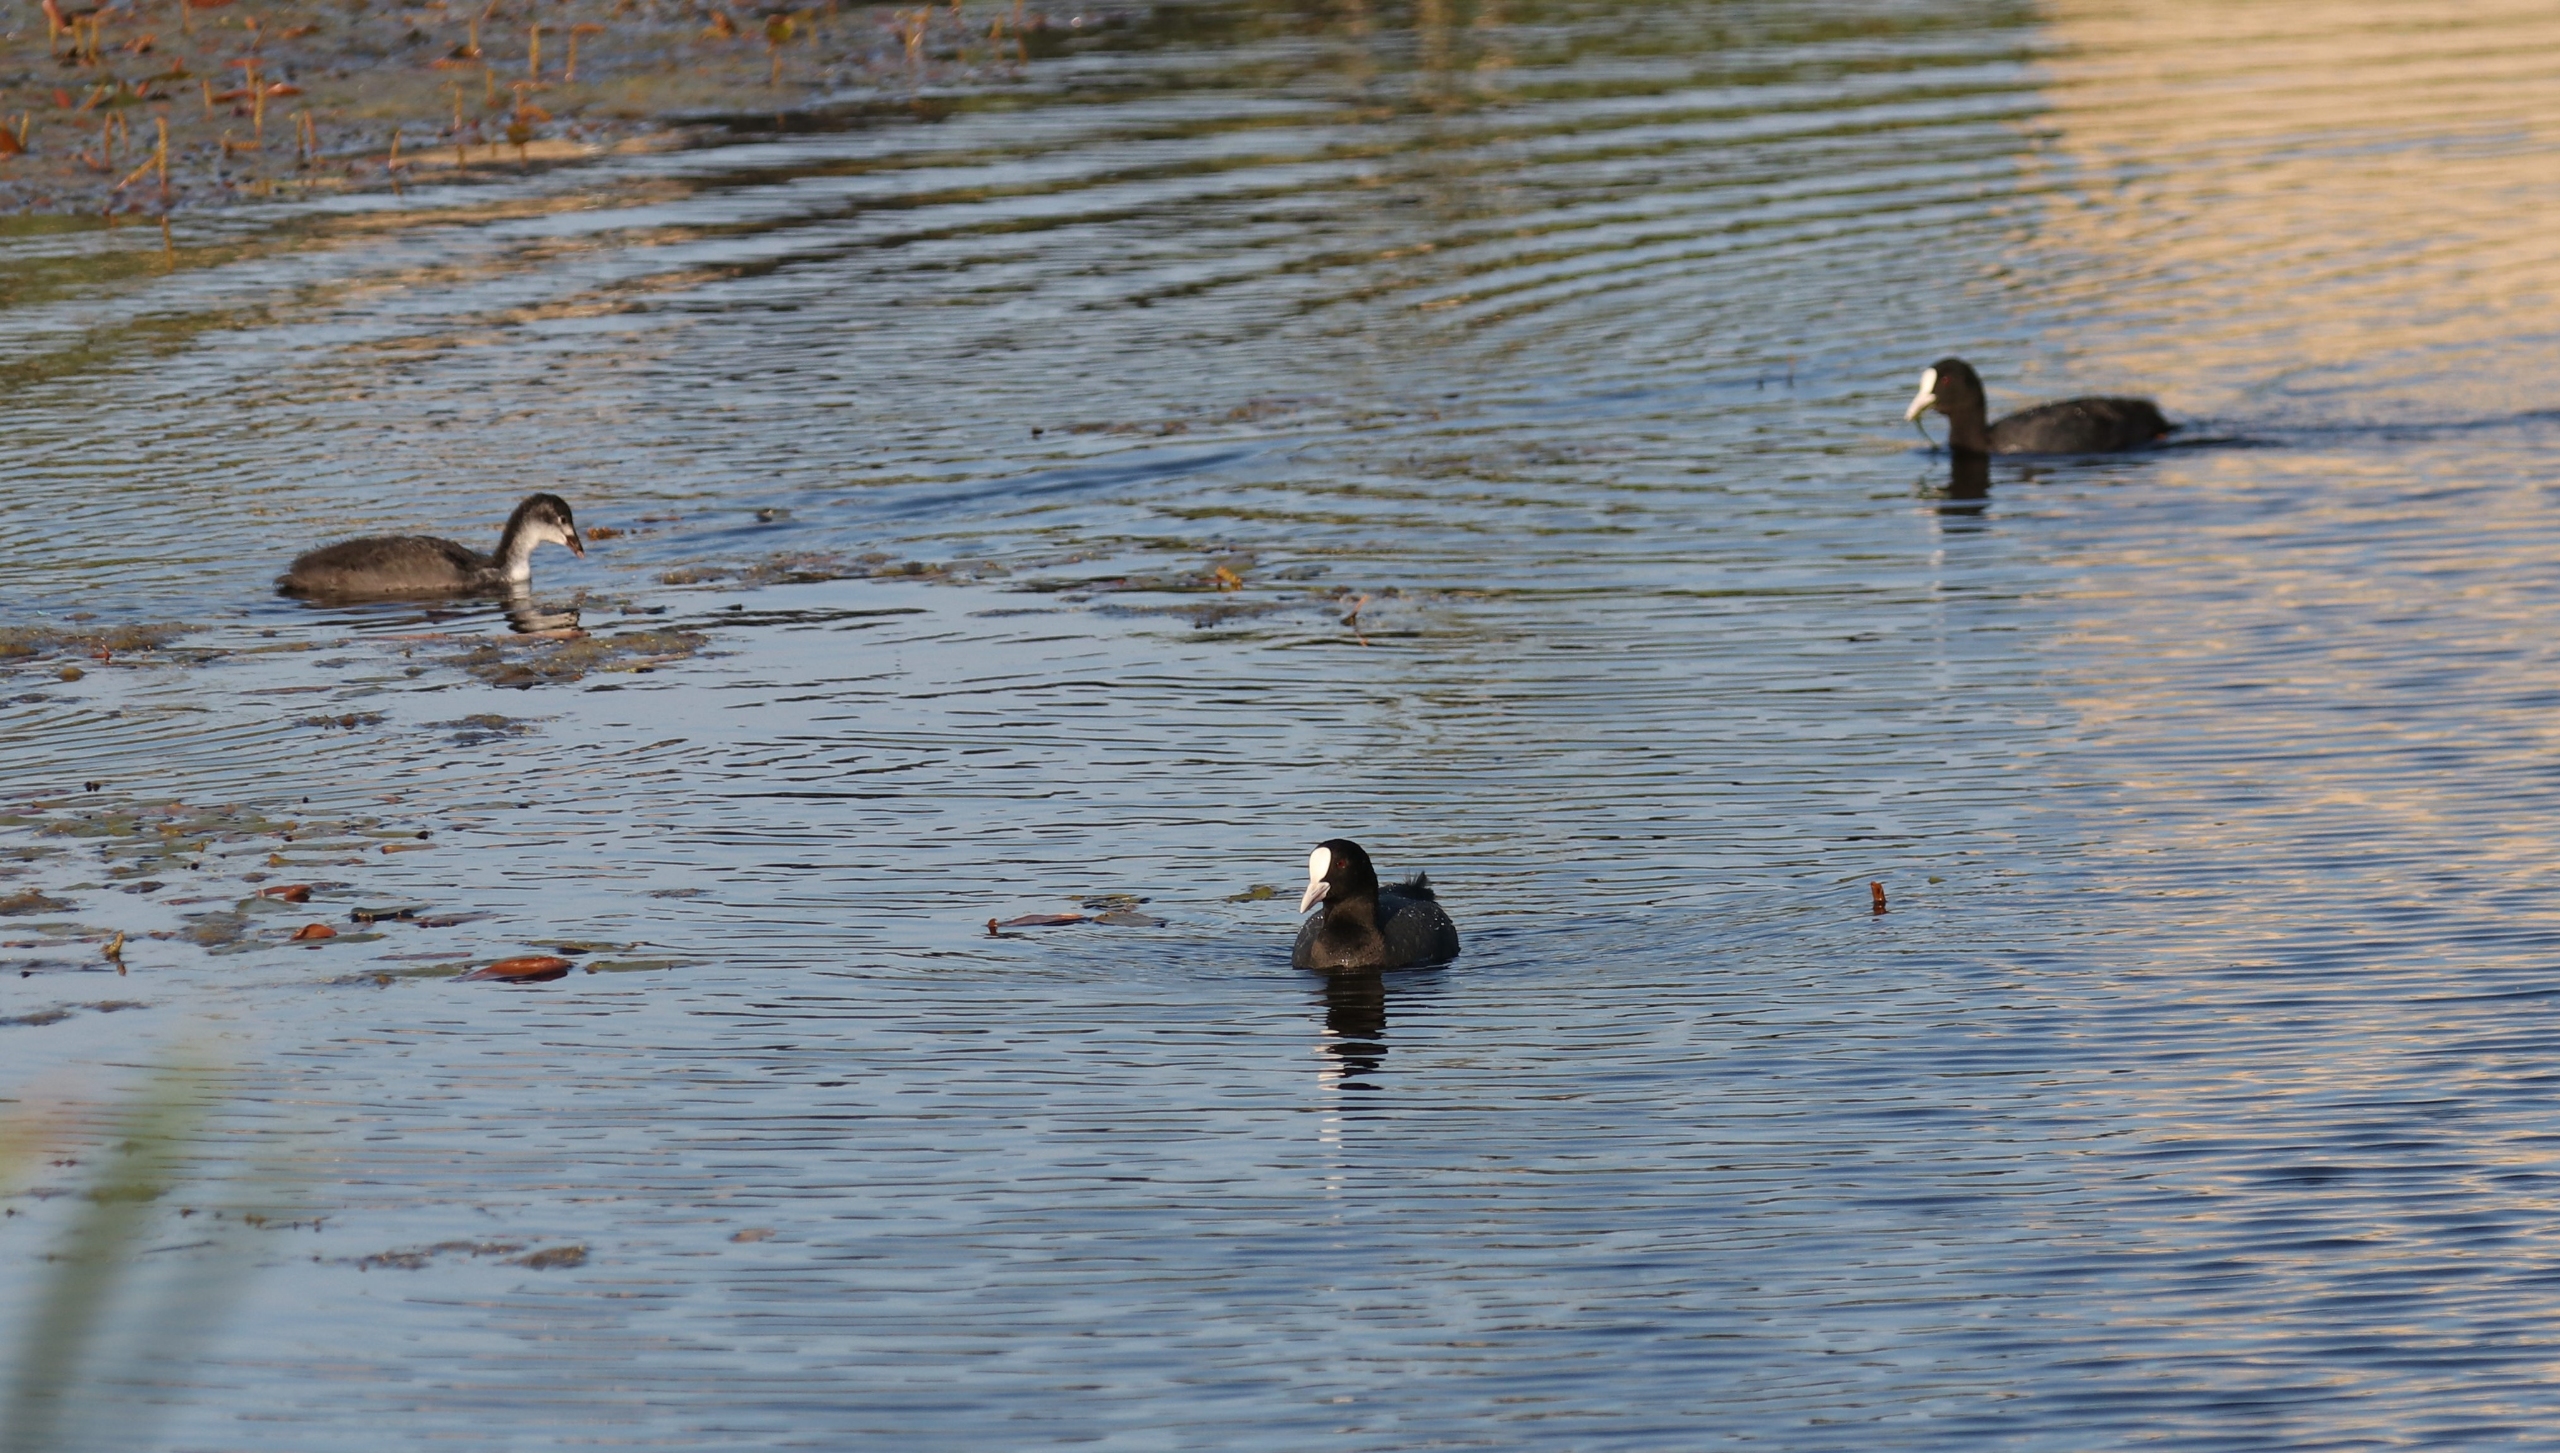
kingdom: Animalia
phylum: Chordata
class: Aves
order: Gruiformes
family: Rallidae
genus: Fulica
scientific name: Fulica atra
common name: Blishøne
